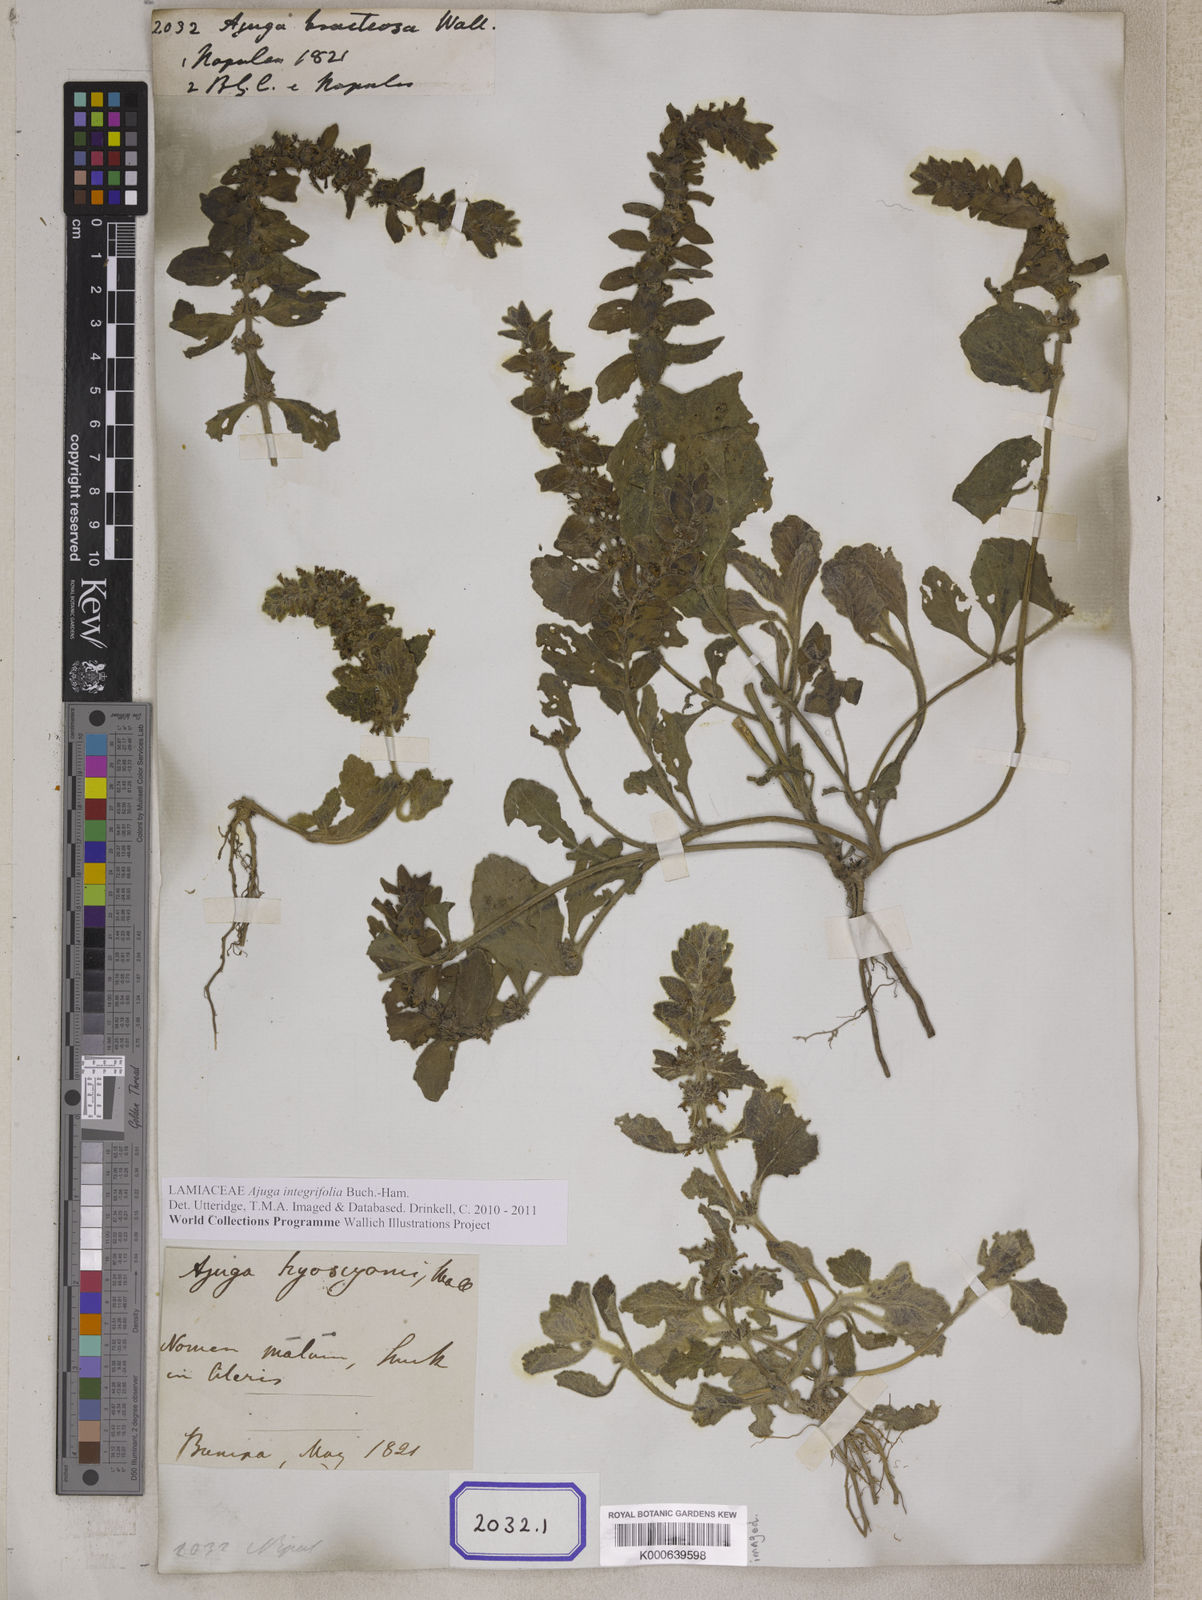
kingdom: Plantae
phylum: Tracheophyta
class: Magnoliopsida
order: Lamiales
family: Lamiaceae
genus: Ajuga
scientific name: Ajuga integrifolia
